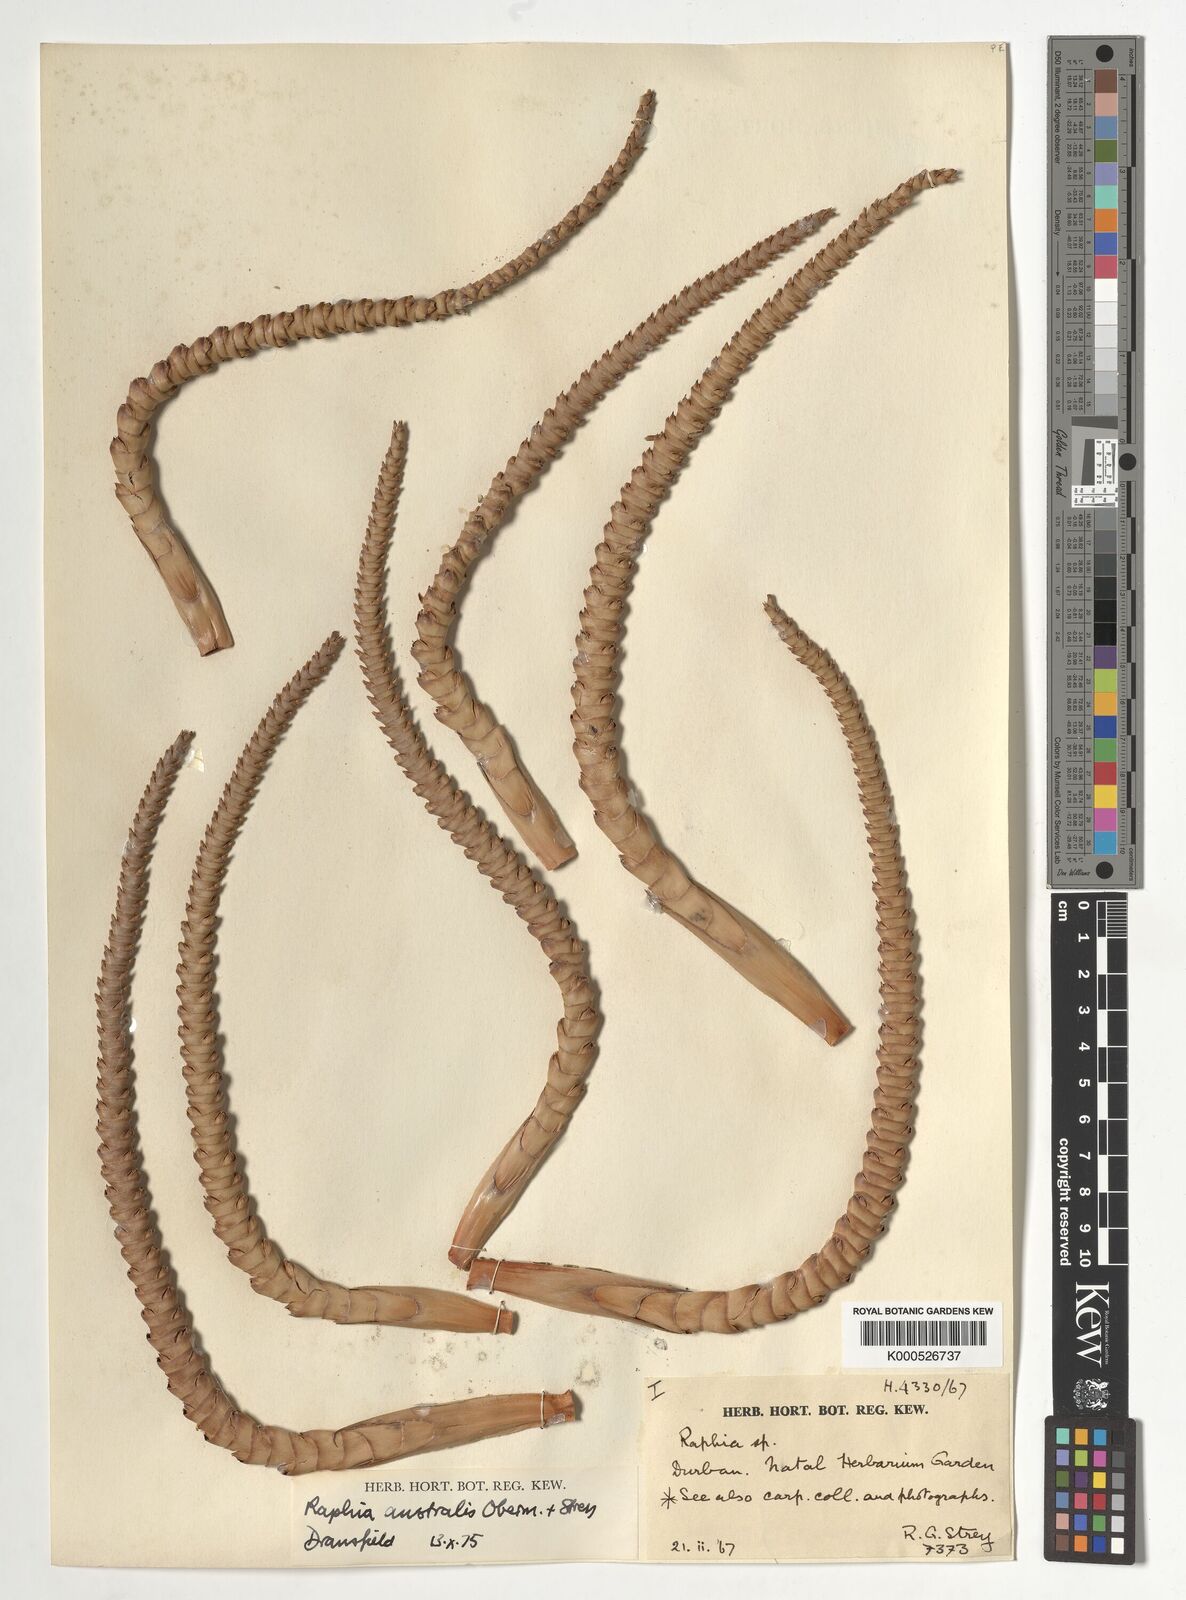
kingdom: Plantae
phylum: Tracheophyta
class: Liliopsida
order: Arecales
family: Arecaceae
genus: Raphia
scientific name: Raphia australis
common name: Giant palm
